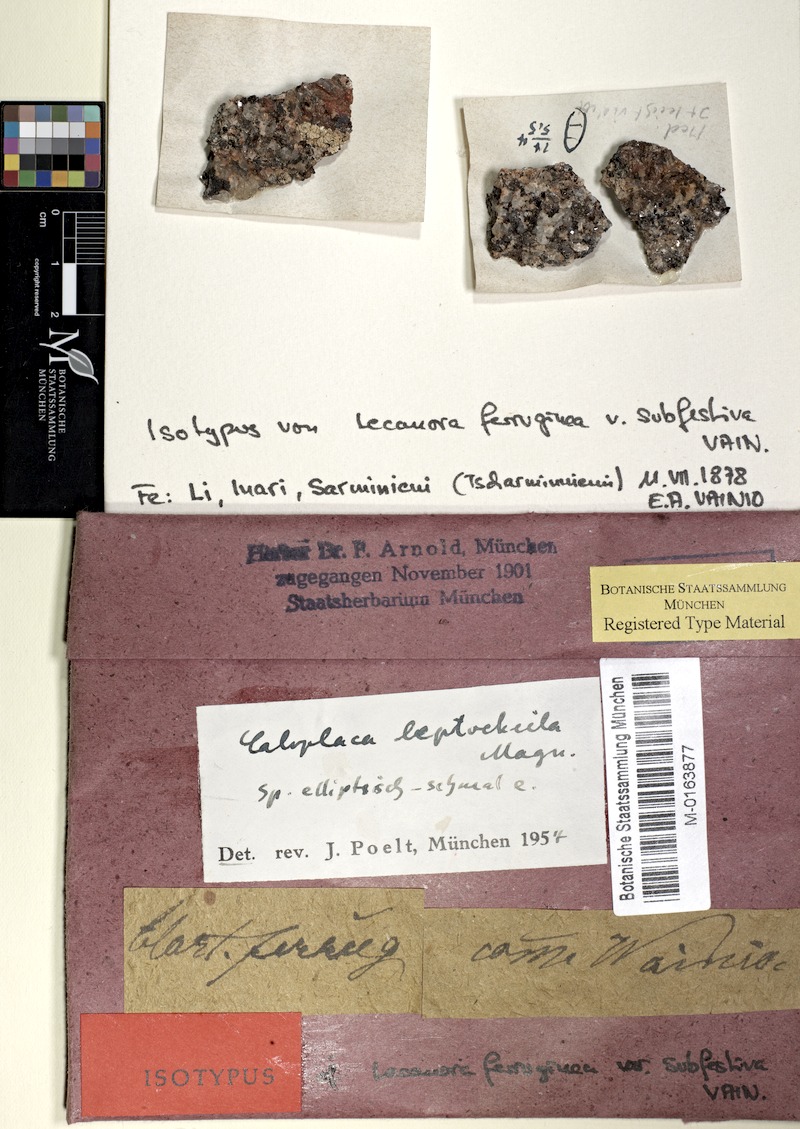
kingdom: Fungi
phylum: Ascomycota
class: Lecanoromycetes
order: Teloschistales
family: Teloschistaceae
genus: Caloplaca
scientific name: Caloplaca leptocheila
